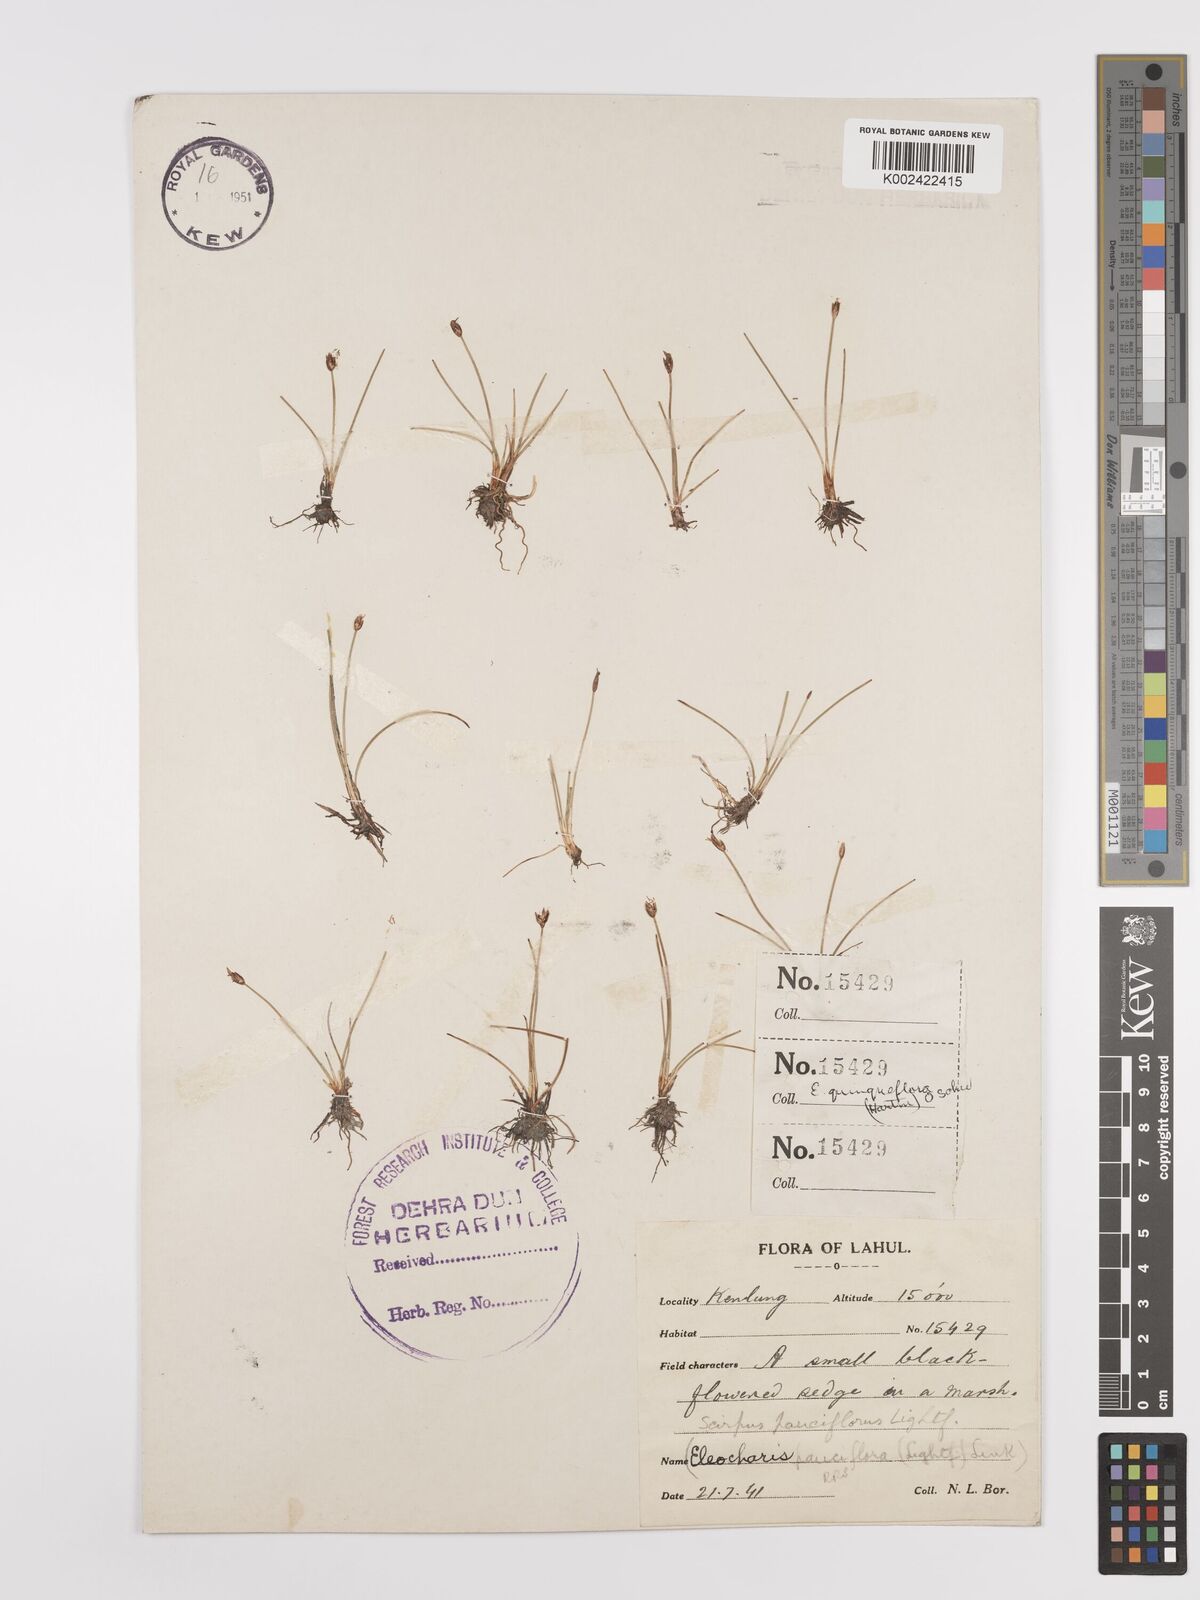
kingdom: Plantae
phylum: Tracheophyta
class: Liliopsida
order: Poales
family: Cyperaceae
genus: Eleocharis
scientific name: Eleocharis quinqueflora
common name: Few-flowered spike-rush
